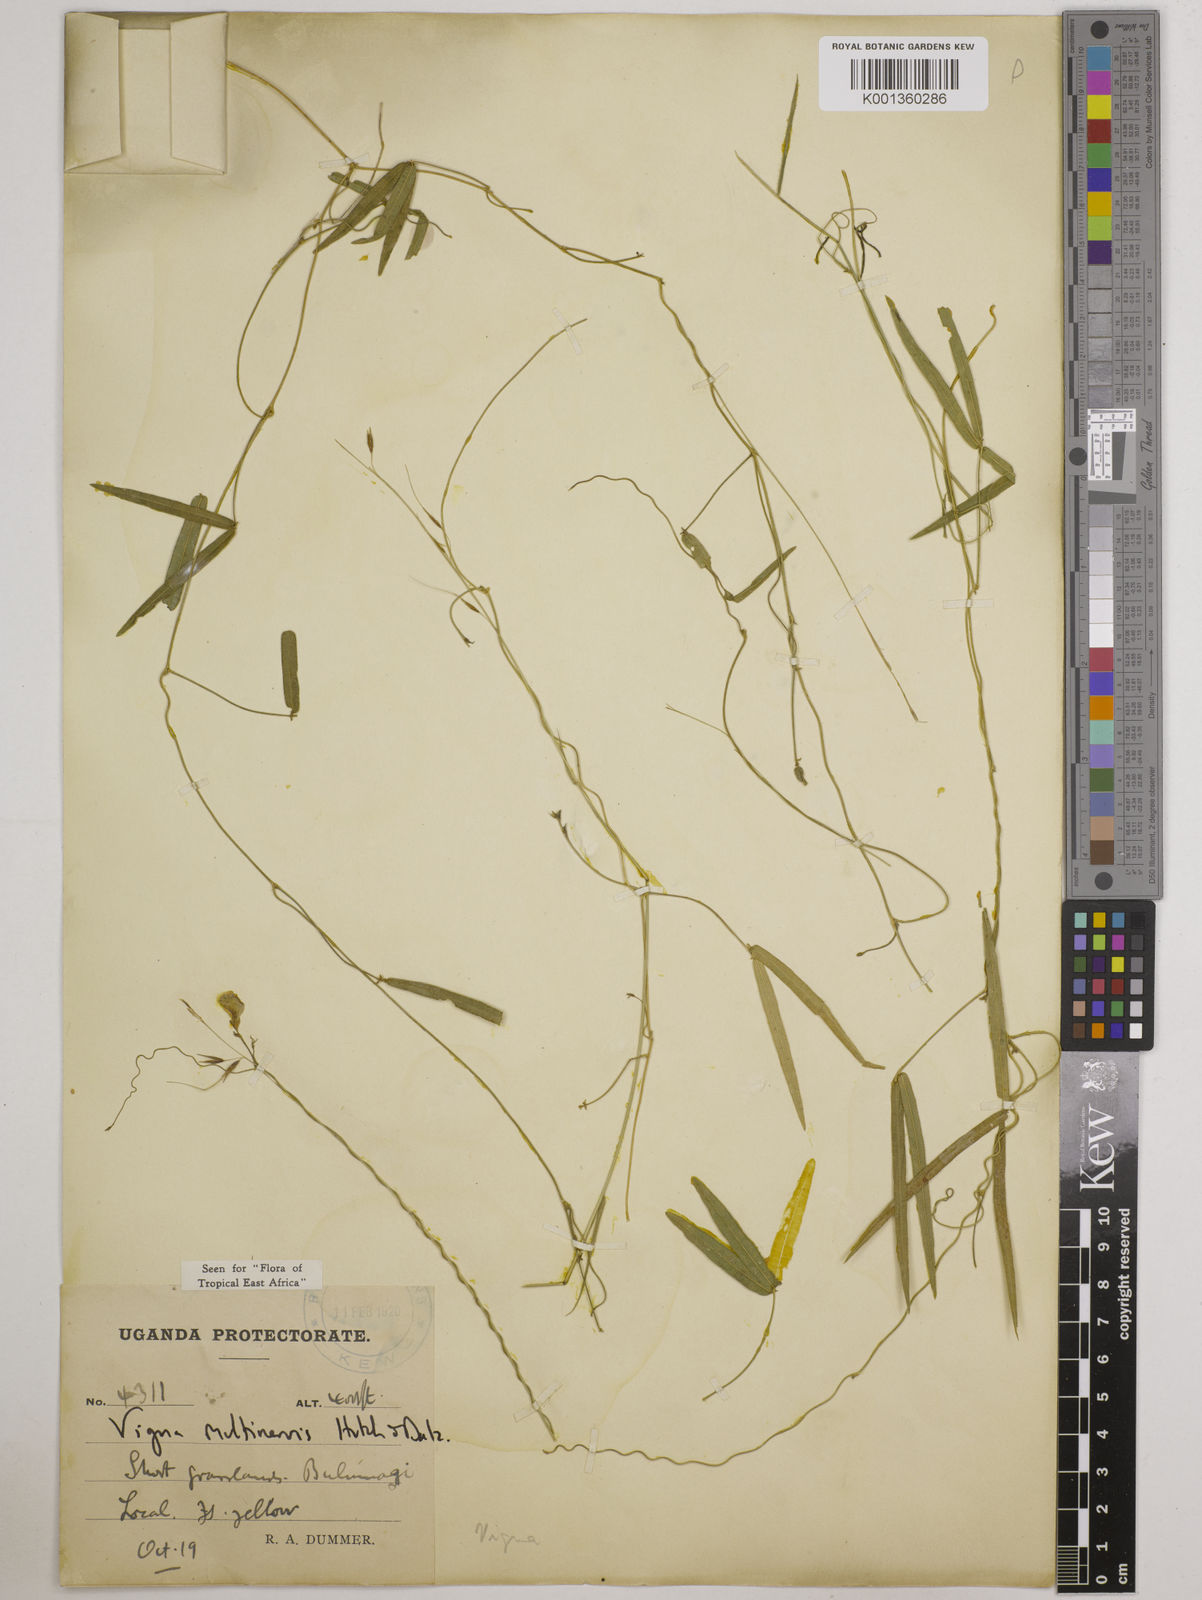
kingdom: Plantae
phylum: Tracheophyta
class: Magnoliopsida
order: Fabales
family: Fabaceae
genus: Vigna
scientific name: Vigna multinervis
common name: Fula-pulaar
